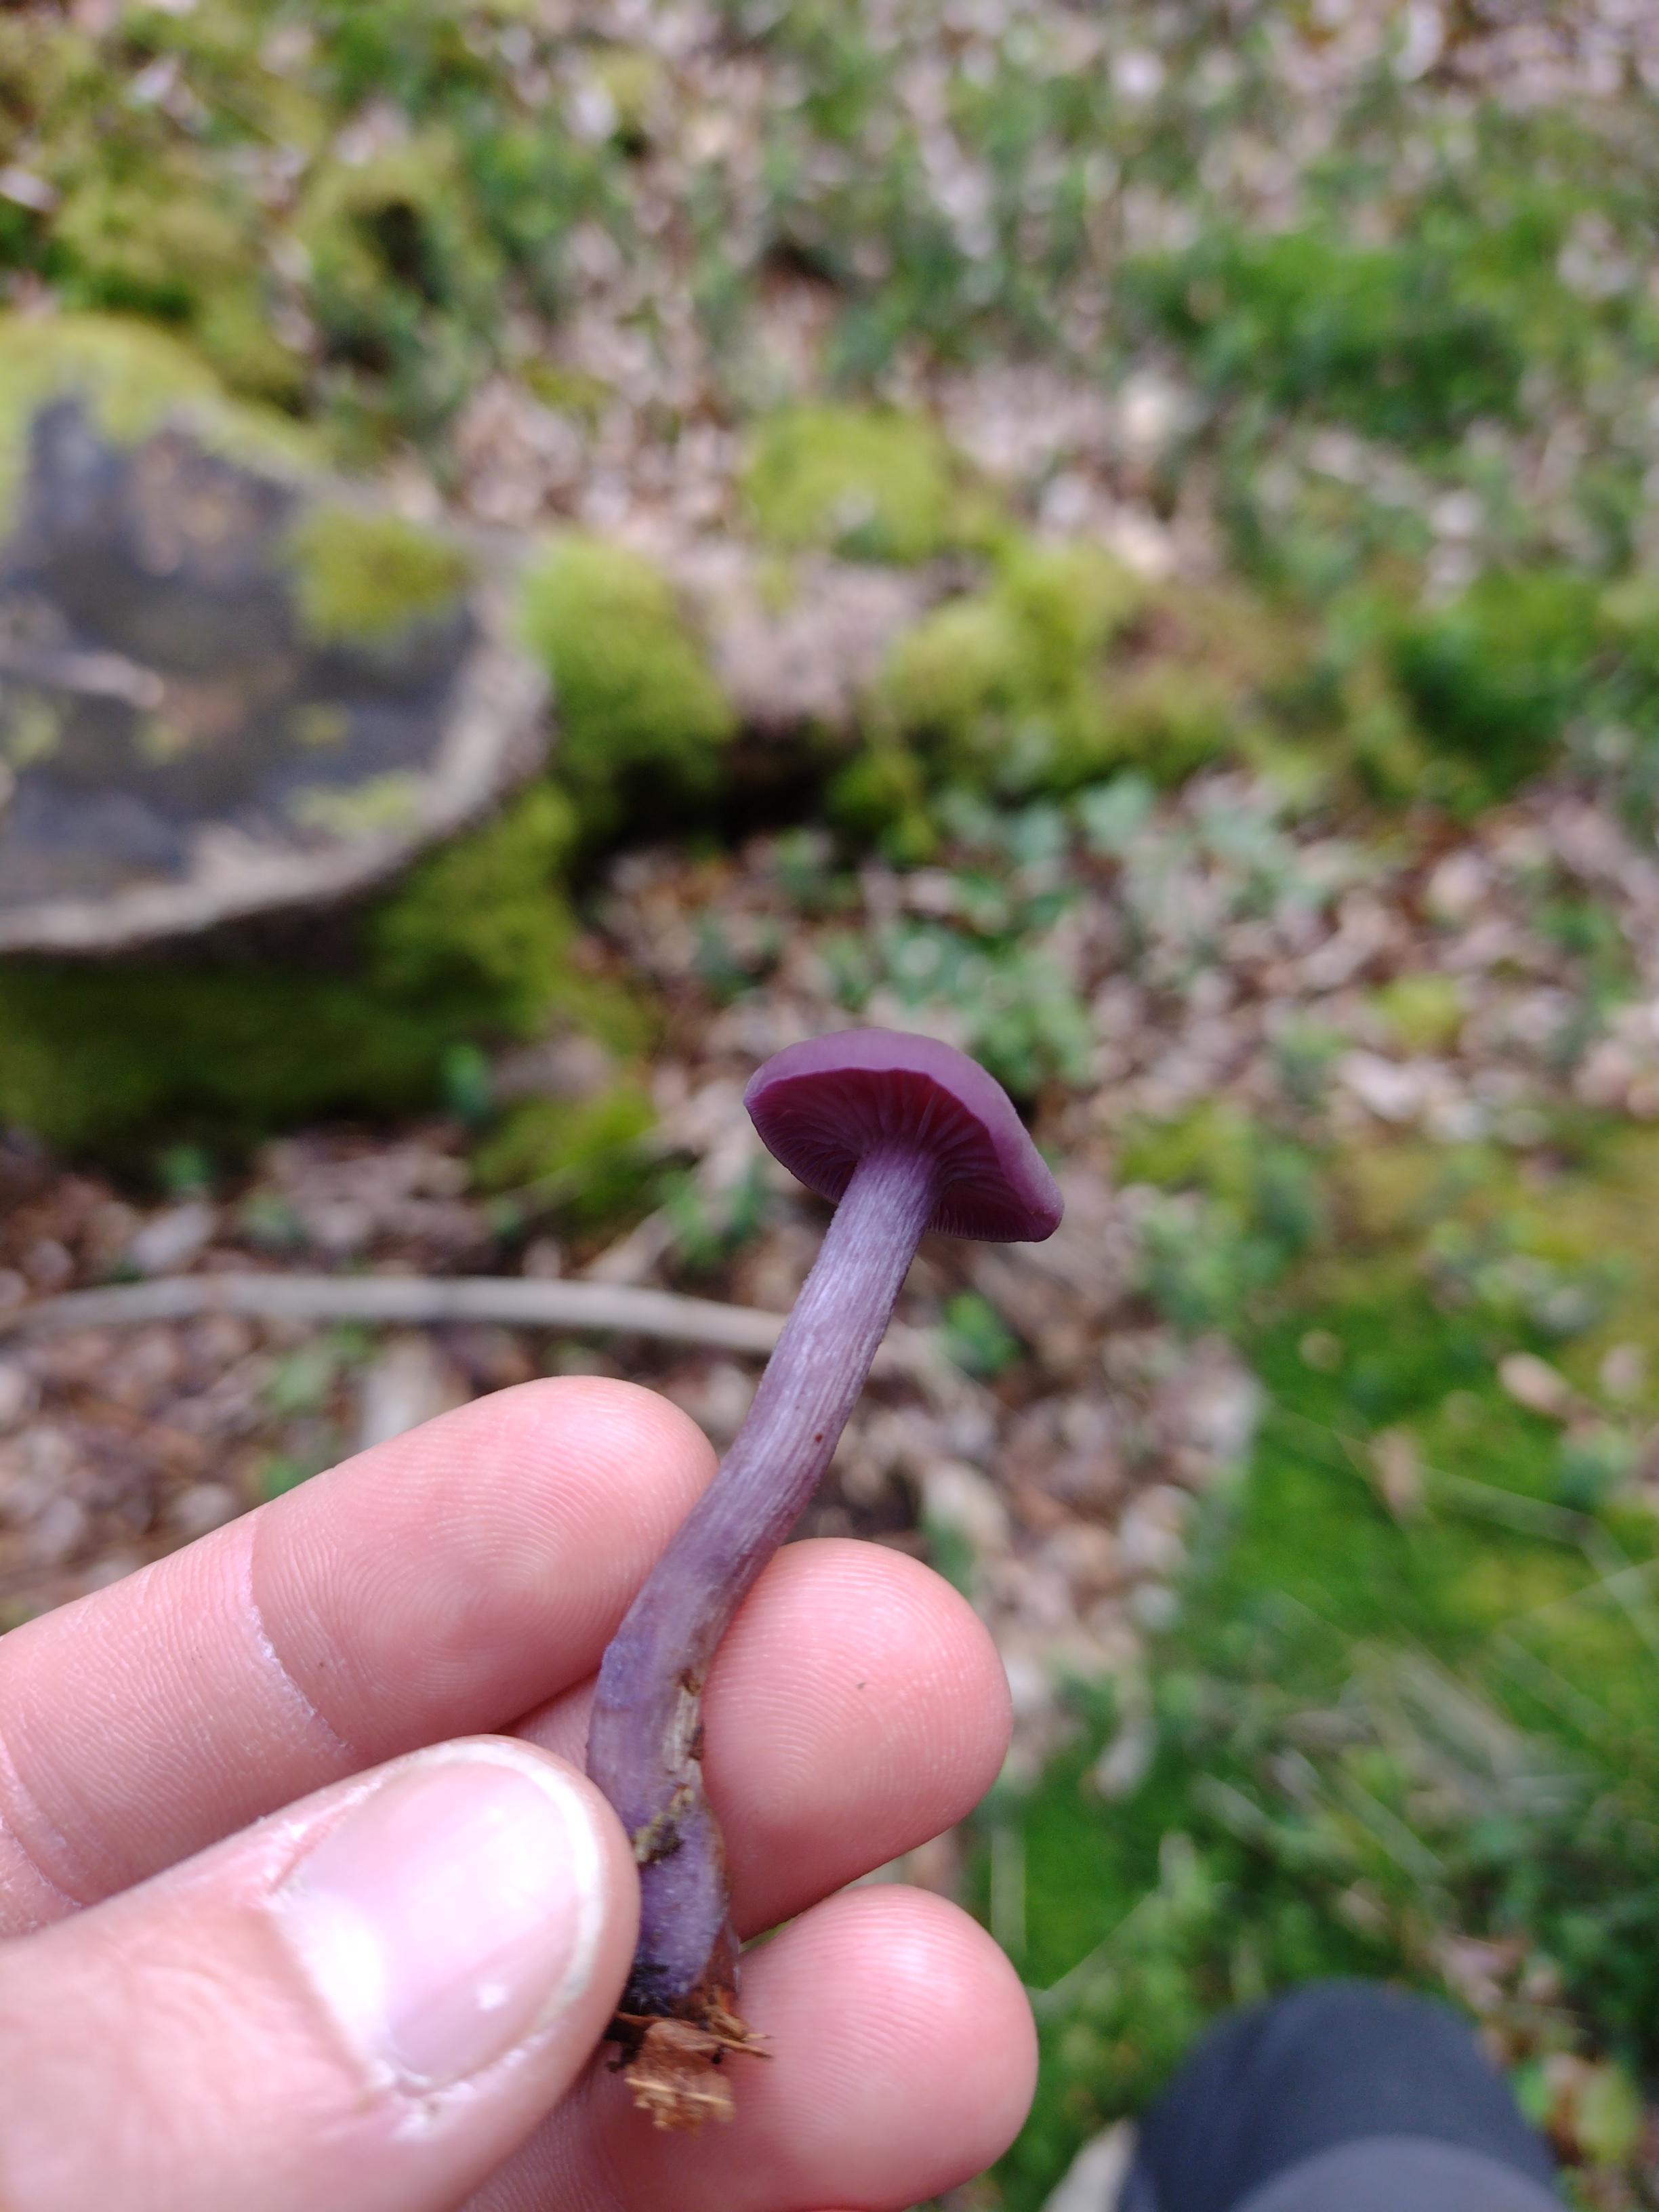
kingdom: Fungi
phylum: Basidiomycota
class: Agaricomycetes
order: Agaricales
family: Hydnangiaceae
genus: Laccaria
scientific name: Laccaria amethystina
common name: violet ametysthat
